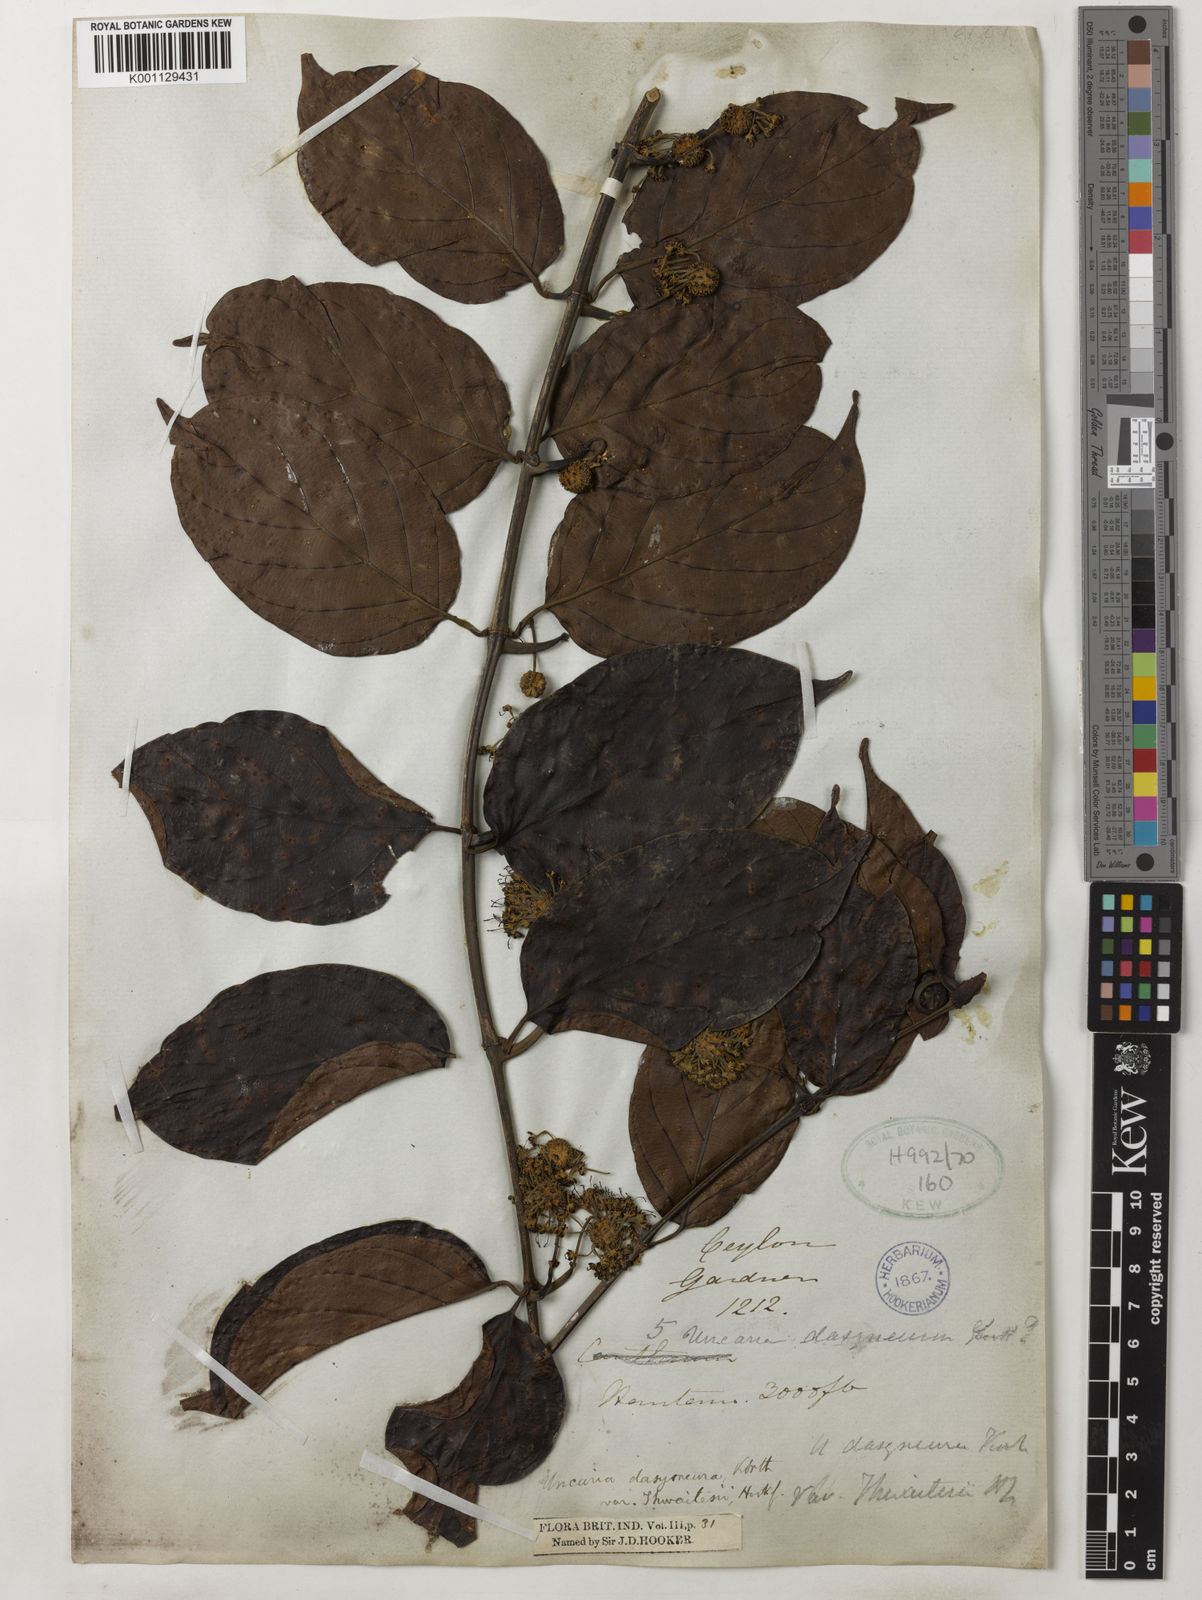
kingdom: Plantae
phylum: Tracheophyta
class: Magnoliopsida
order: Gentianales
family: Rubiaceae
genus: Uncaria
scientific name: Uncaria elliptica
